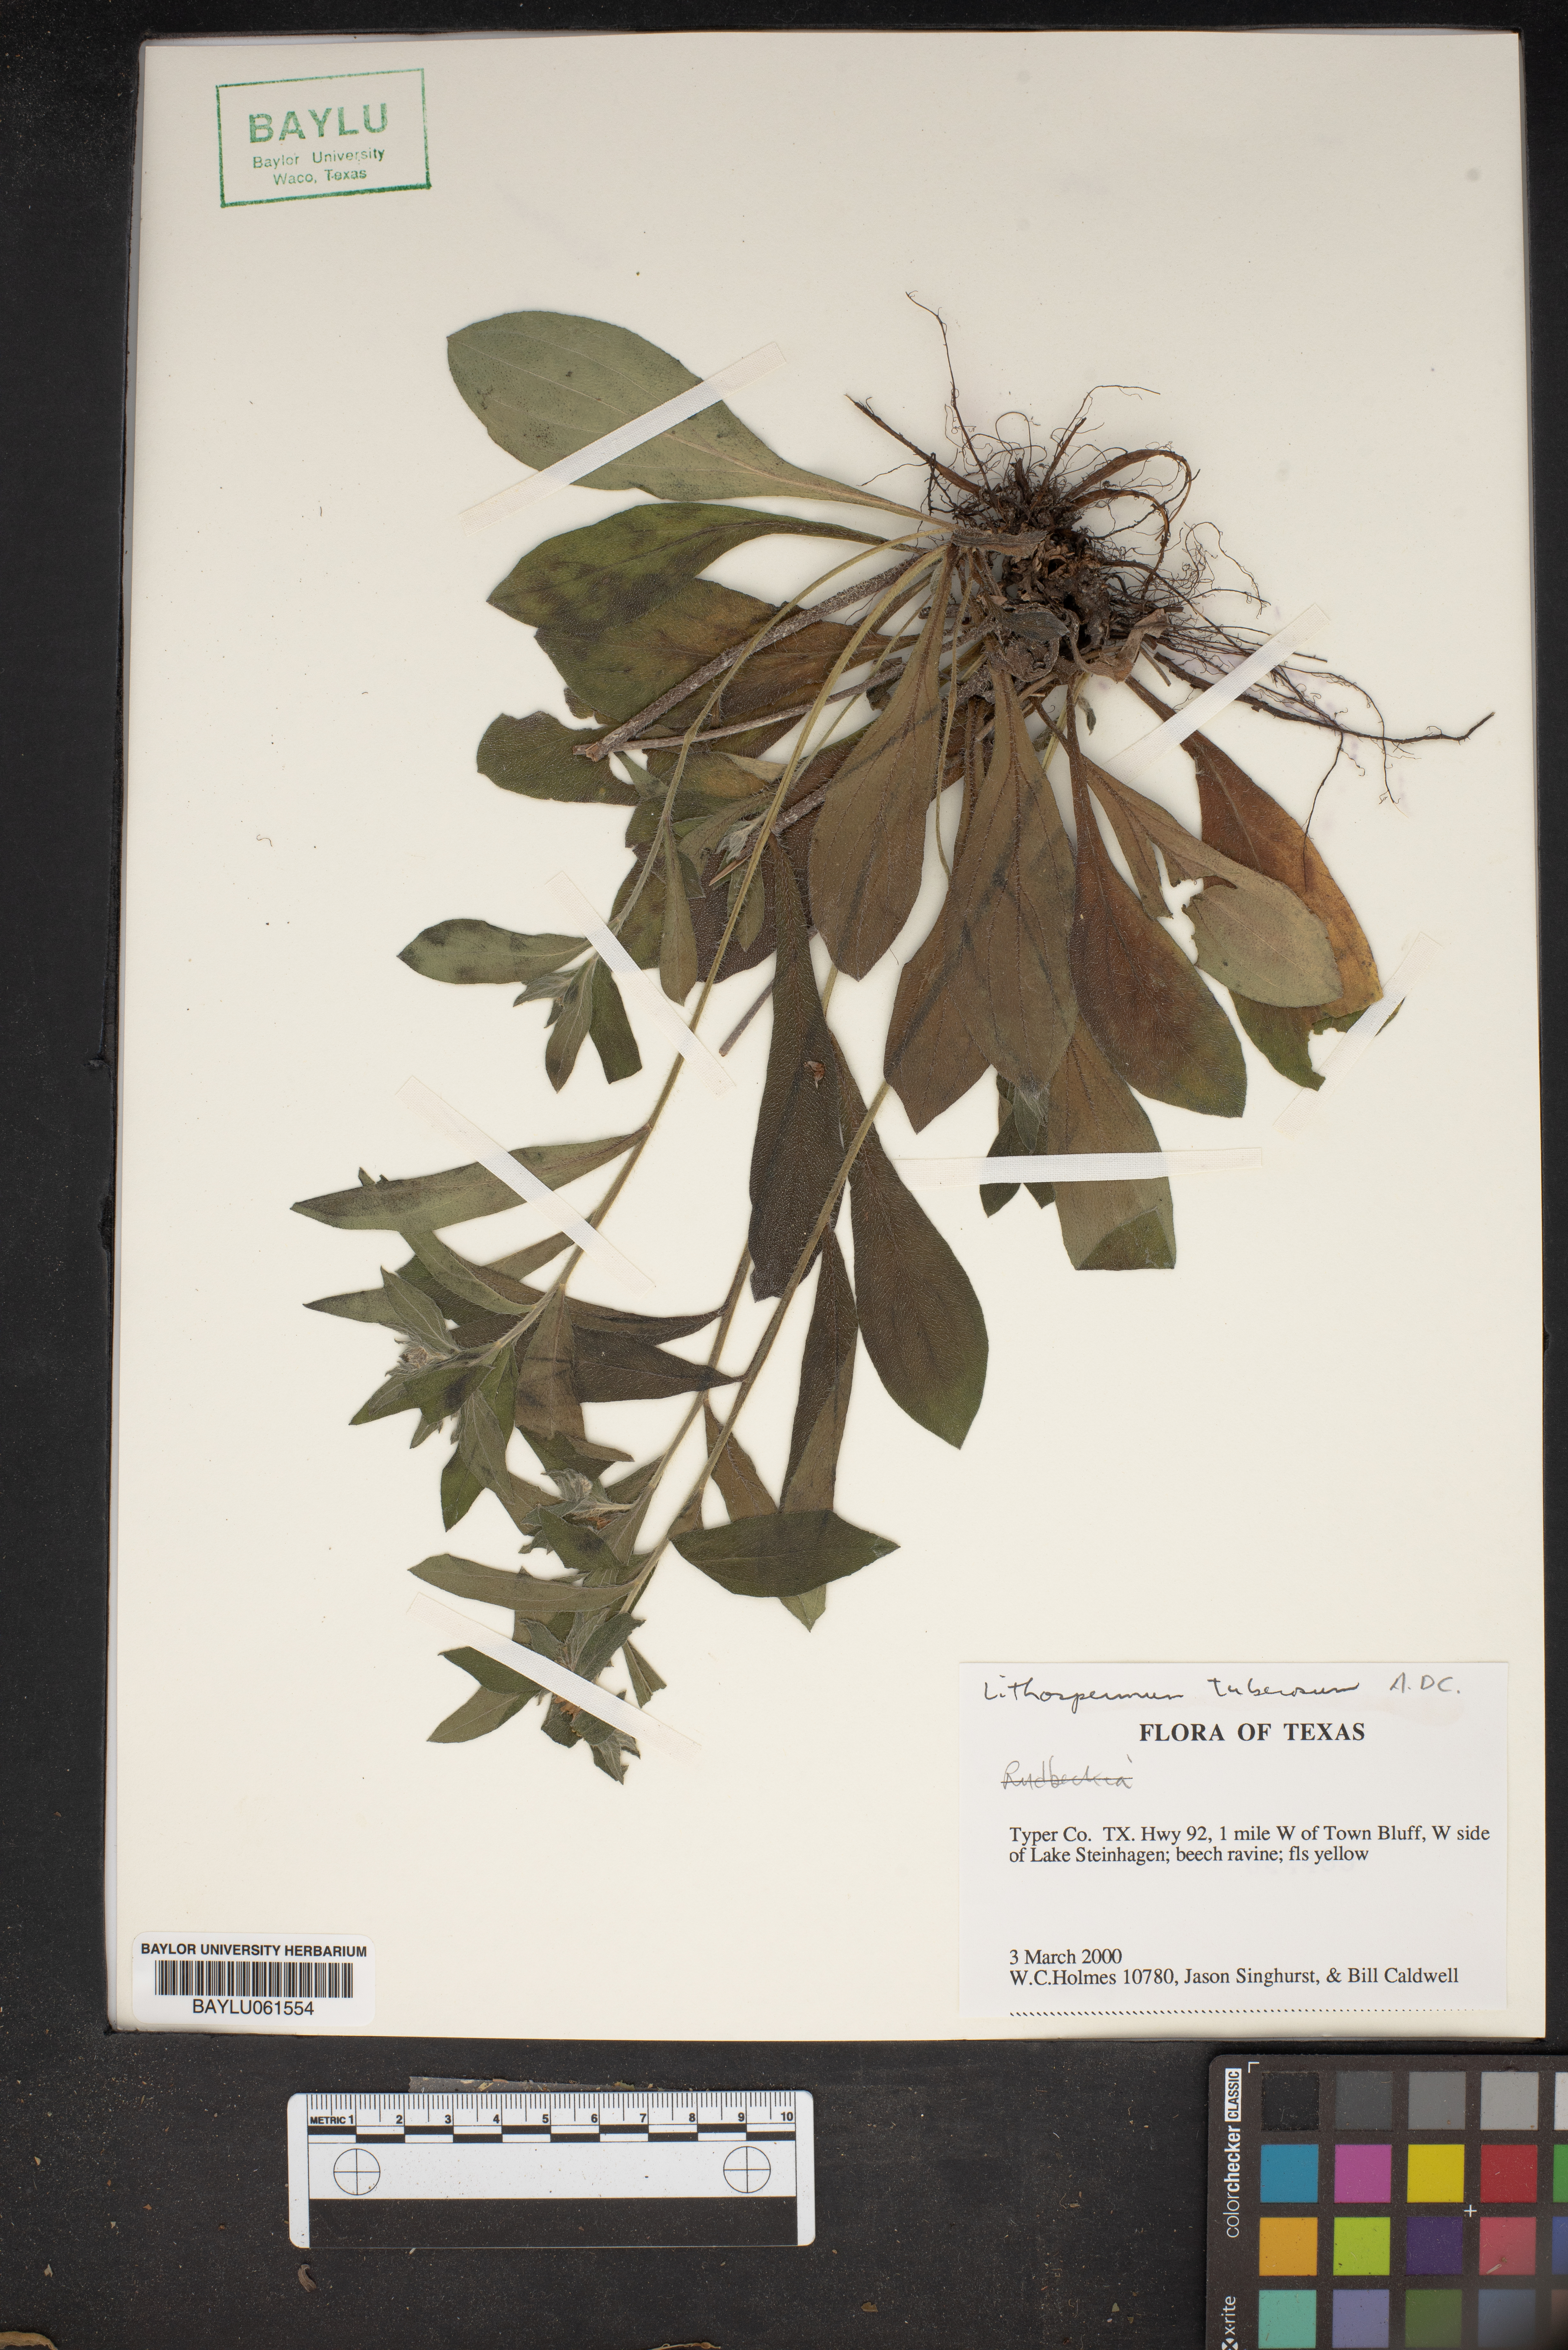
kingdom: Plantae
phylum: Tracheophyta
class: Magnoliopsida
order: Boraginales
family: Boraginaceae
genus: Lithospermum
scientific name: Lithospermum tuberosum
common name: Southern stoneseed
